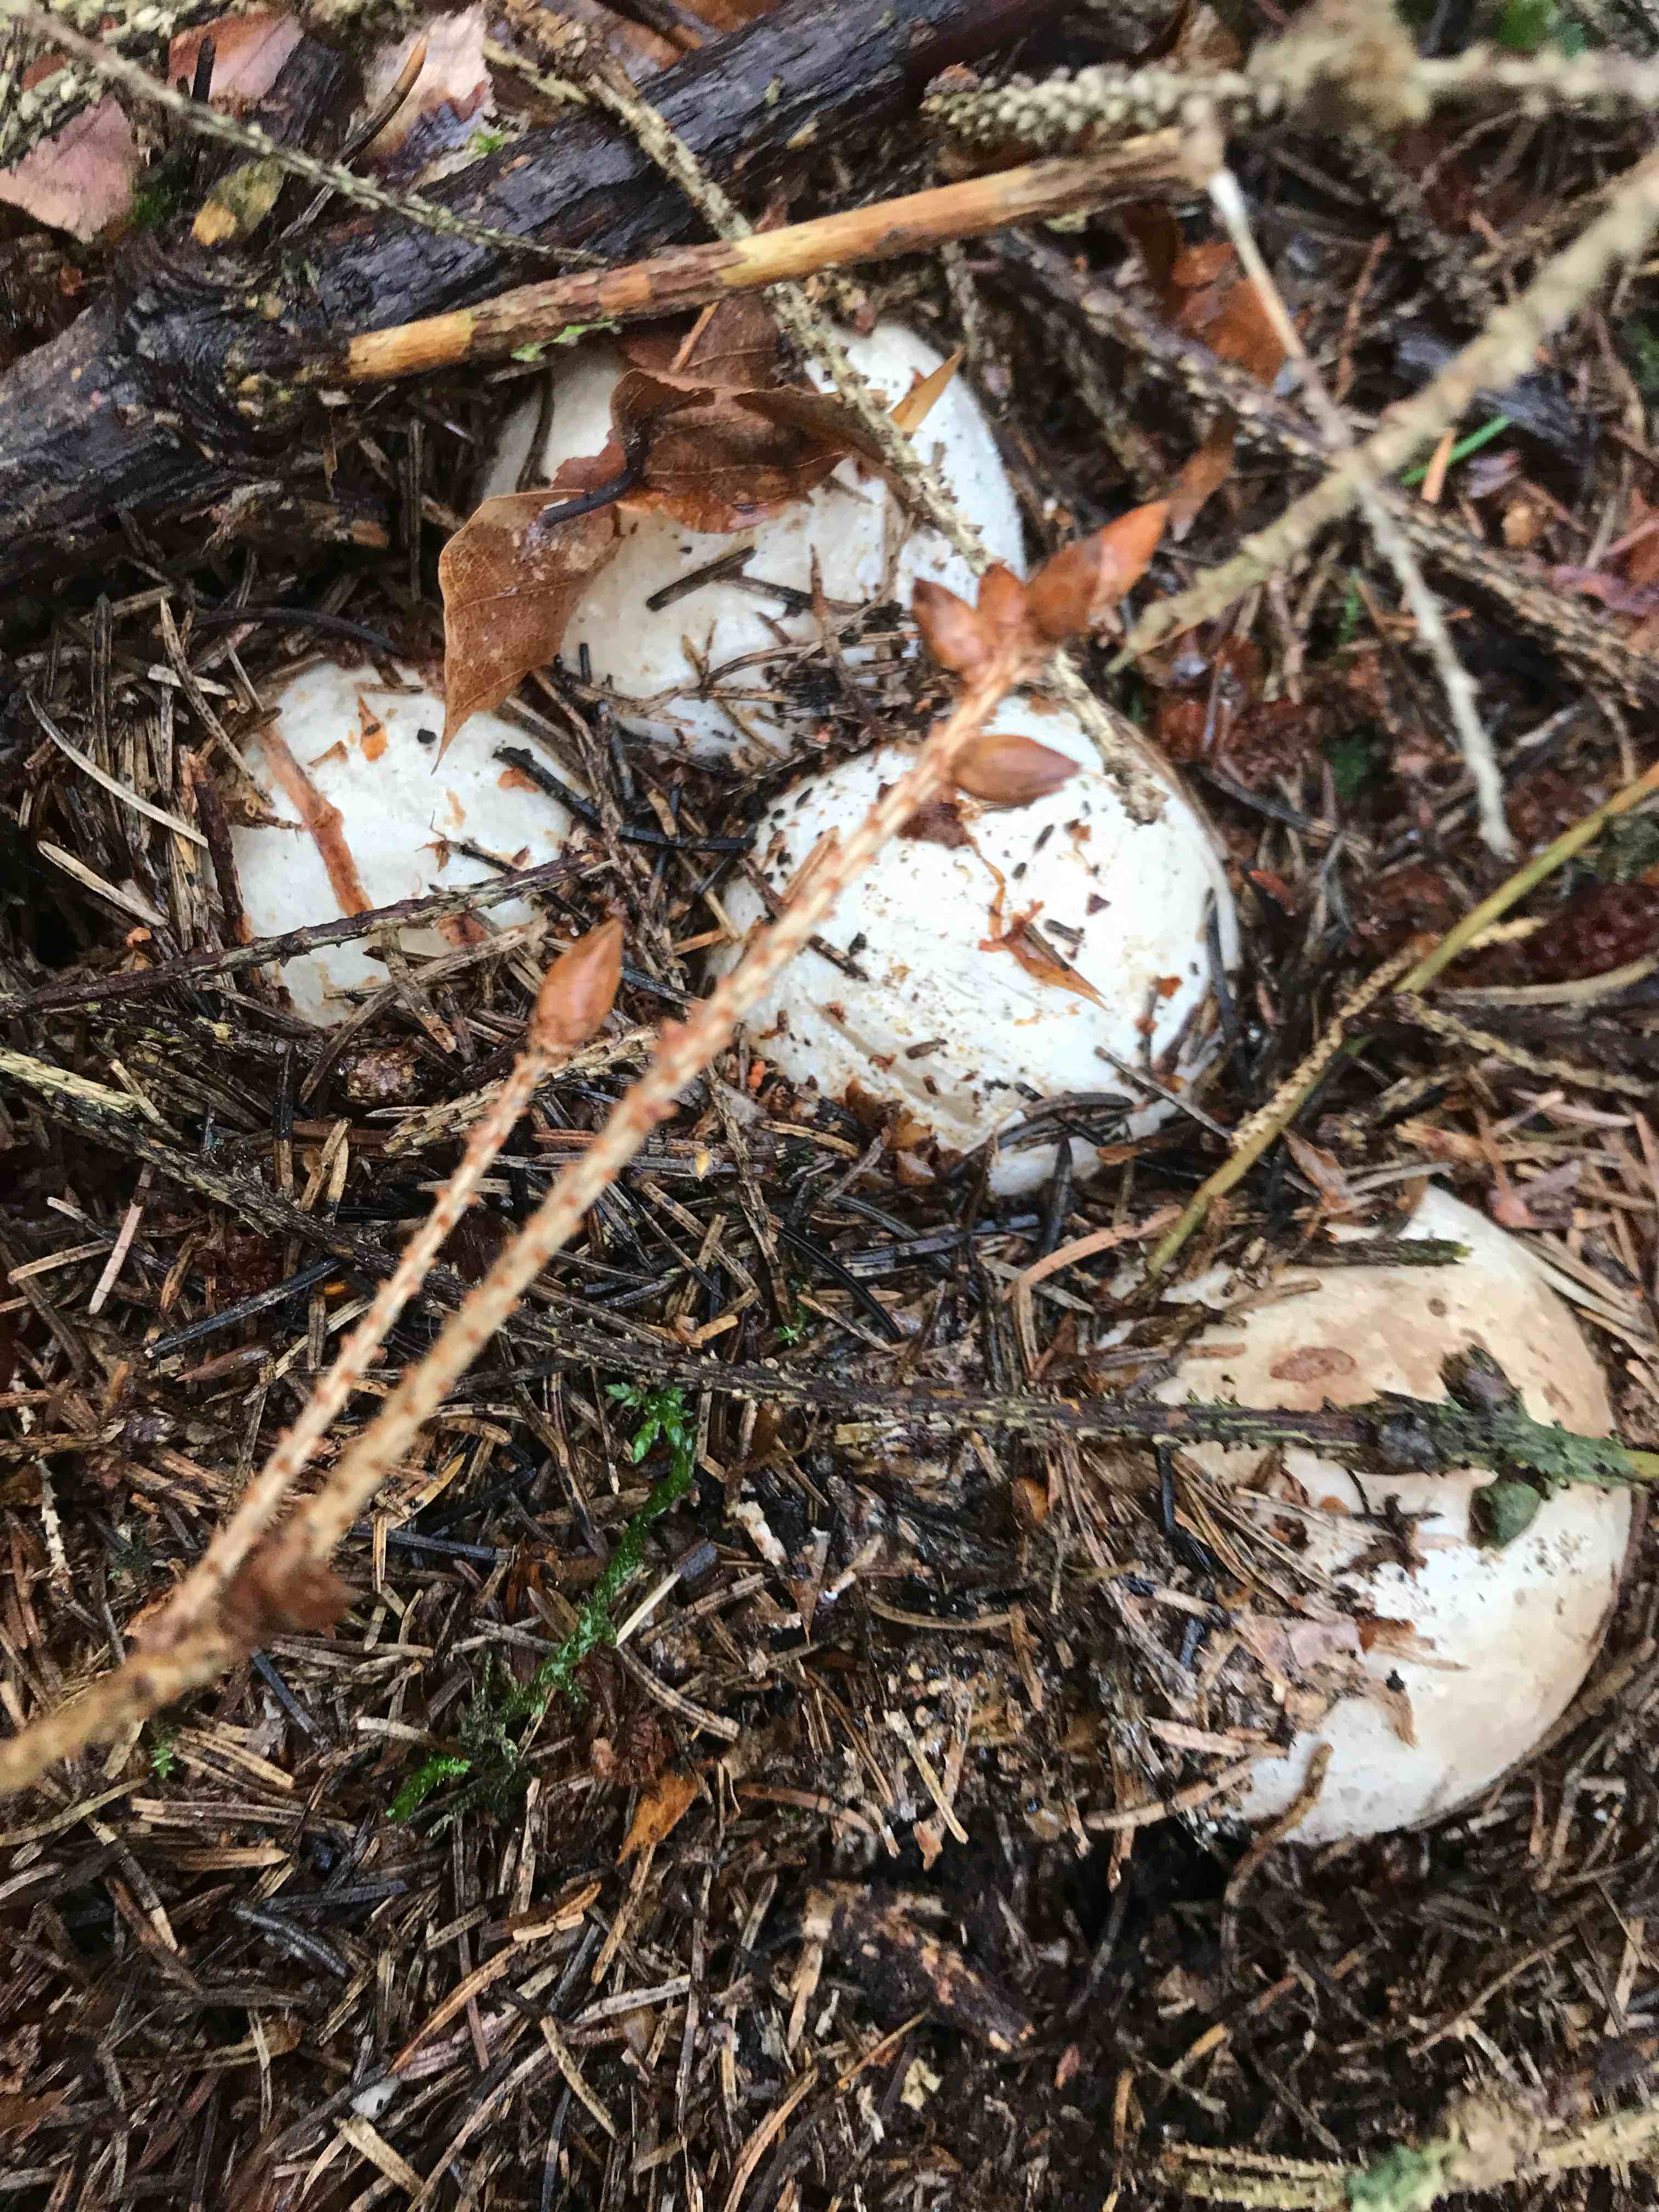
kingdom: Fungi
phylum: Basidiomycota
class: Agaricomycetes
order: Phallales
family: Phallaceae
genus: Phallus
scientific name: Phallus impudicus
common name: almindelig stinksvamp
